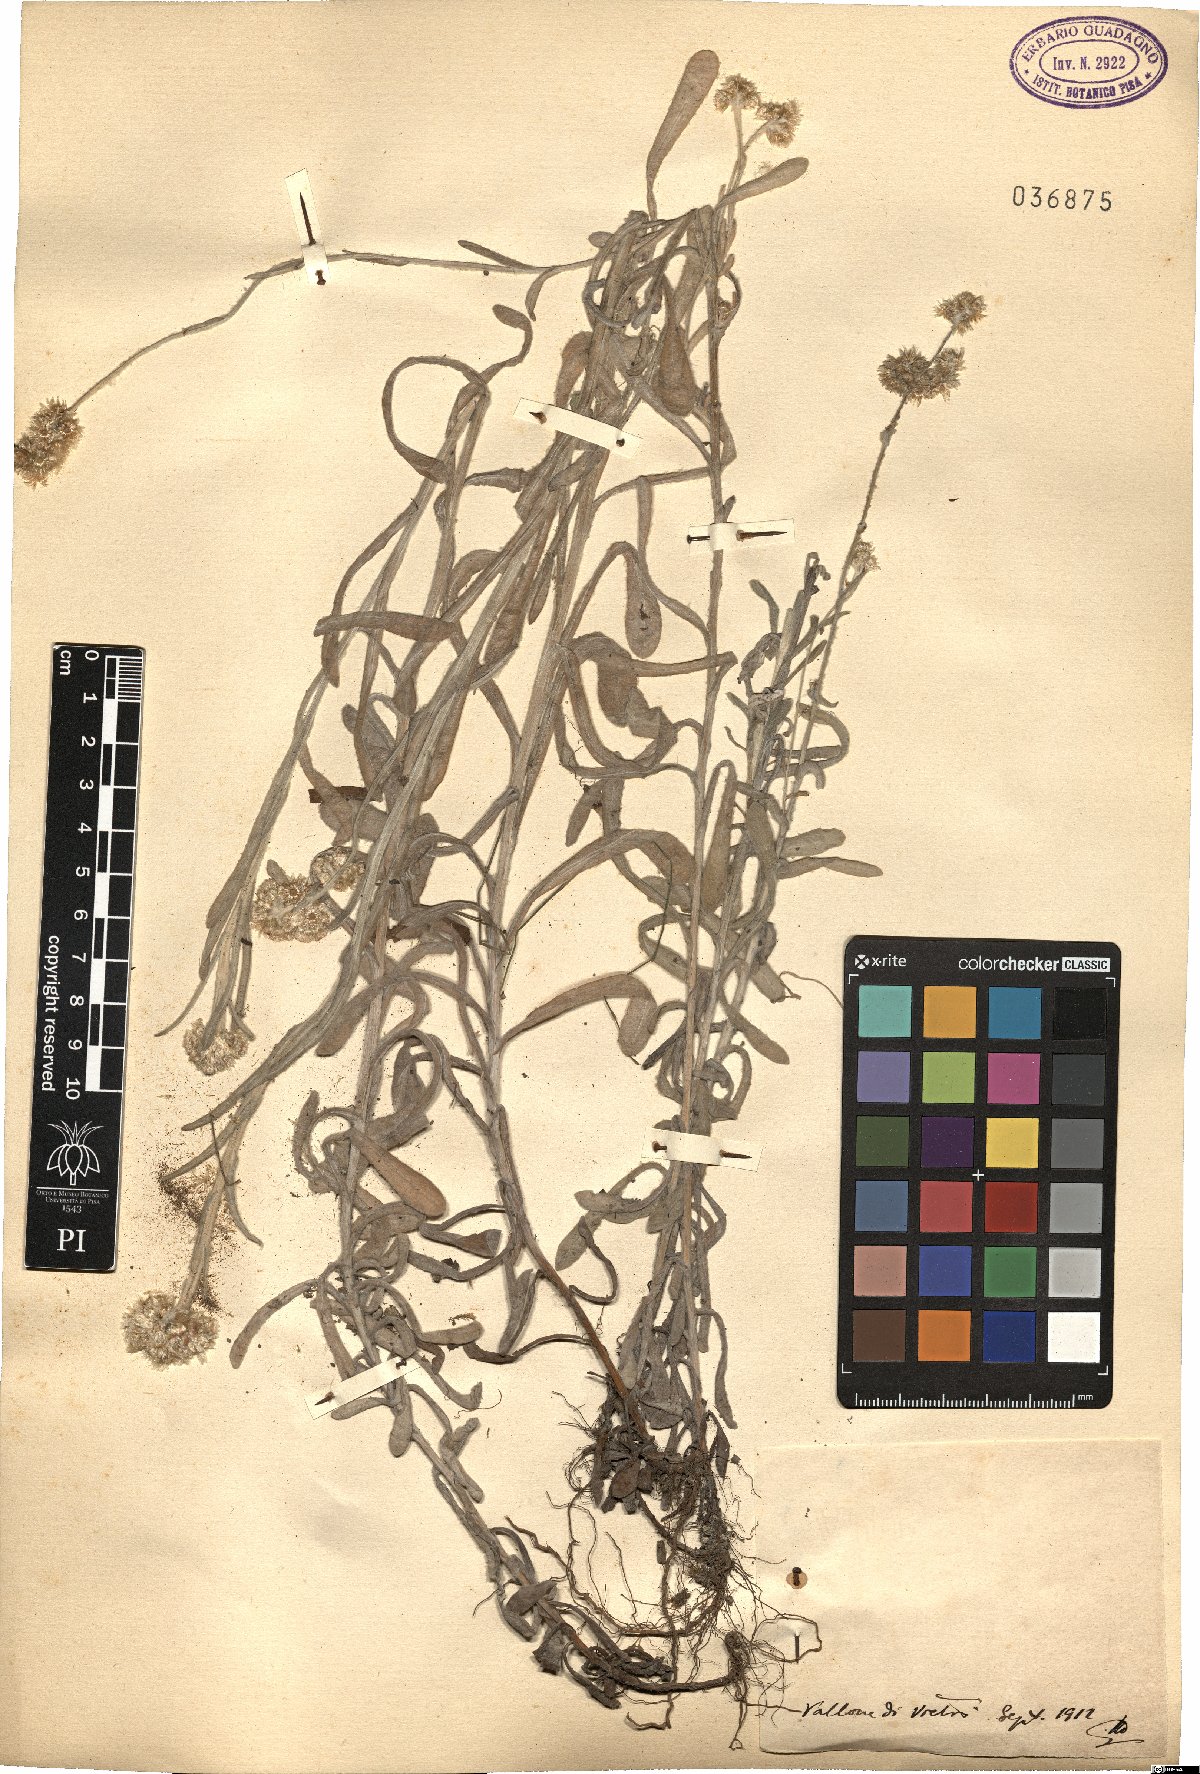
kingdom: Plantae
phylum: Tracheophyta
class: Magnoliopsida
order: Asterales
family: Asteraceae
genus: Gnaphalium
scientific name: Gnaphalium
